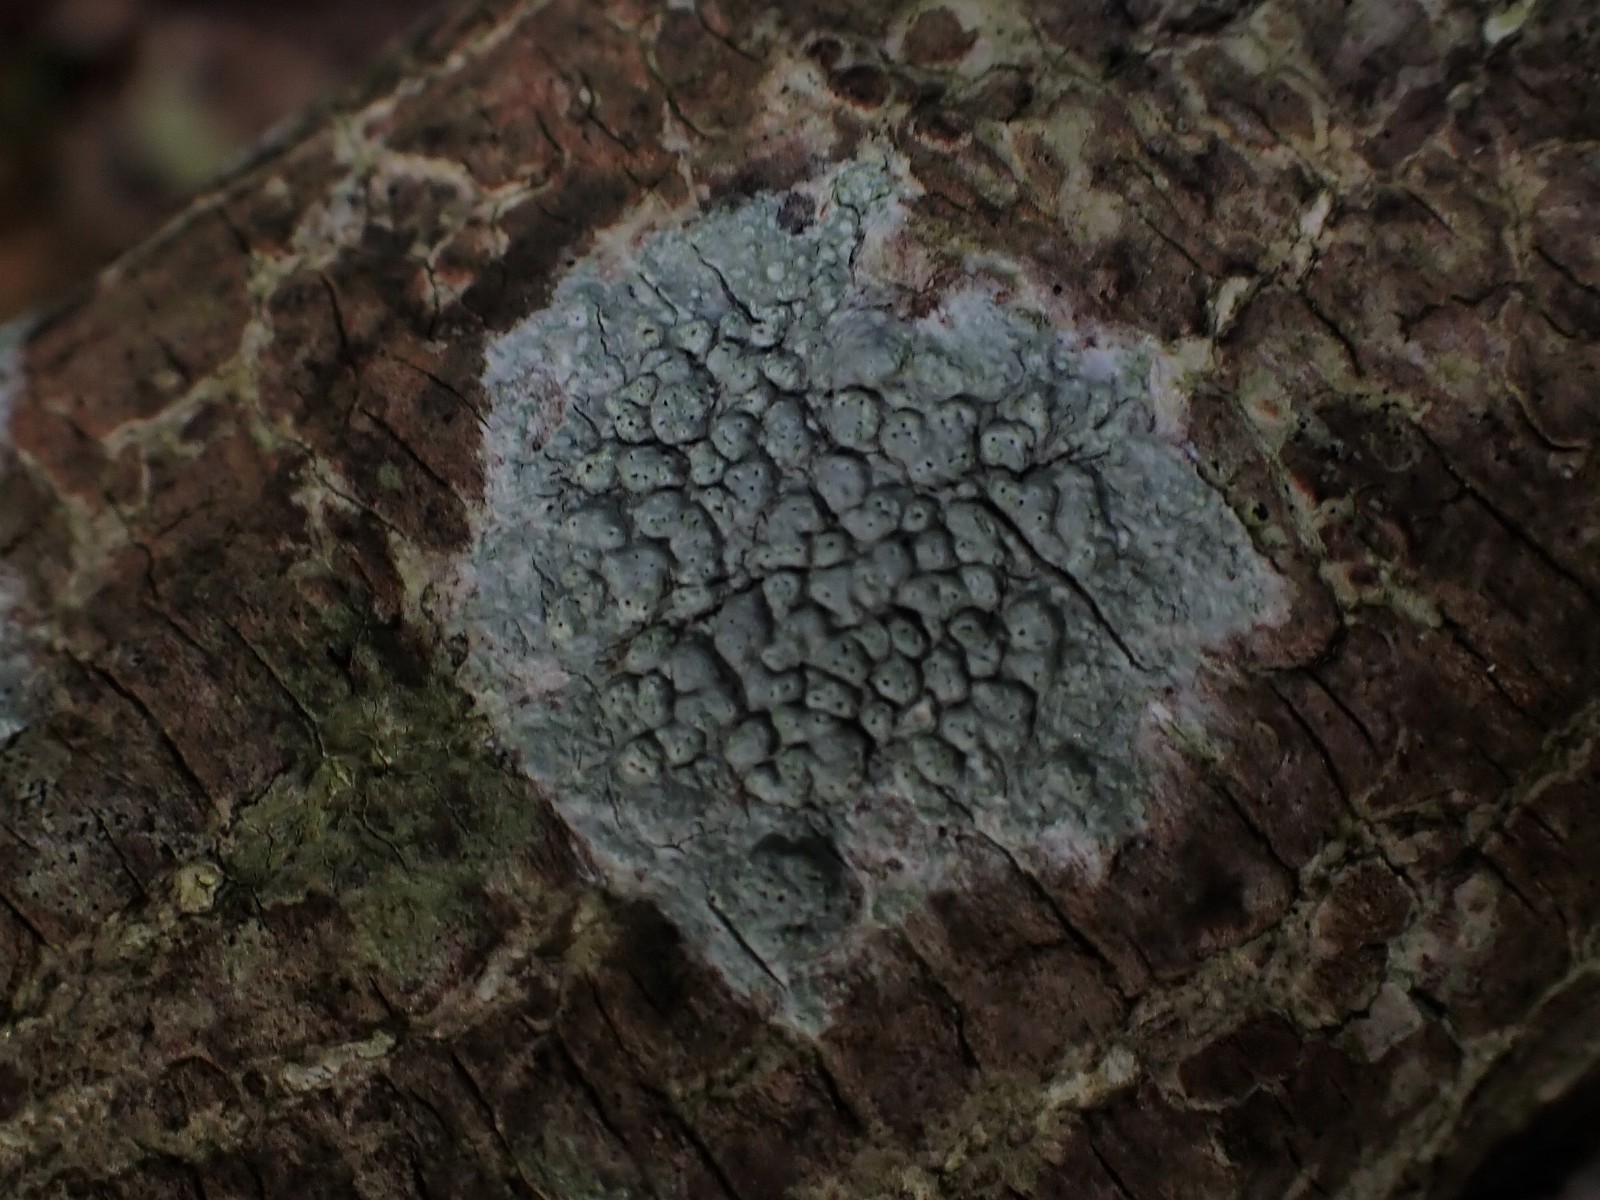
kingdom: Fungi
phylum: Ascomycota
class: Lecanoromycetes
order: Pertusariales
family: Pertusariaceae
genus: Pertusaria
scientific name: Pertusaria pertusa
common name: almindelig prikvortelav
